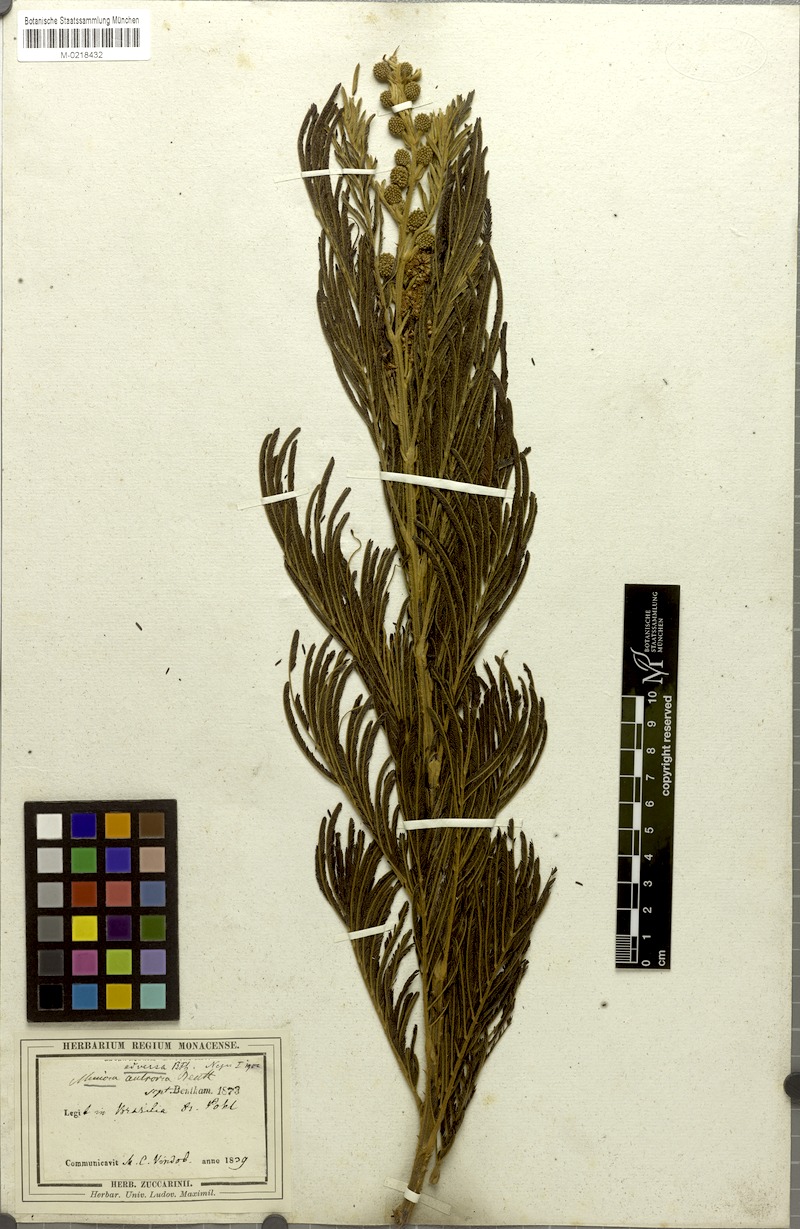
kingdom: Plantae
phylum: Tracheophyta
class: Magnoliopsida
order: Fabales
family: Fabaceae
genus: Mimosa
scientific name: Mimosa antrorsa
